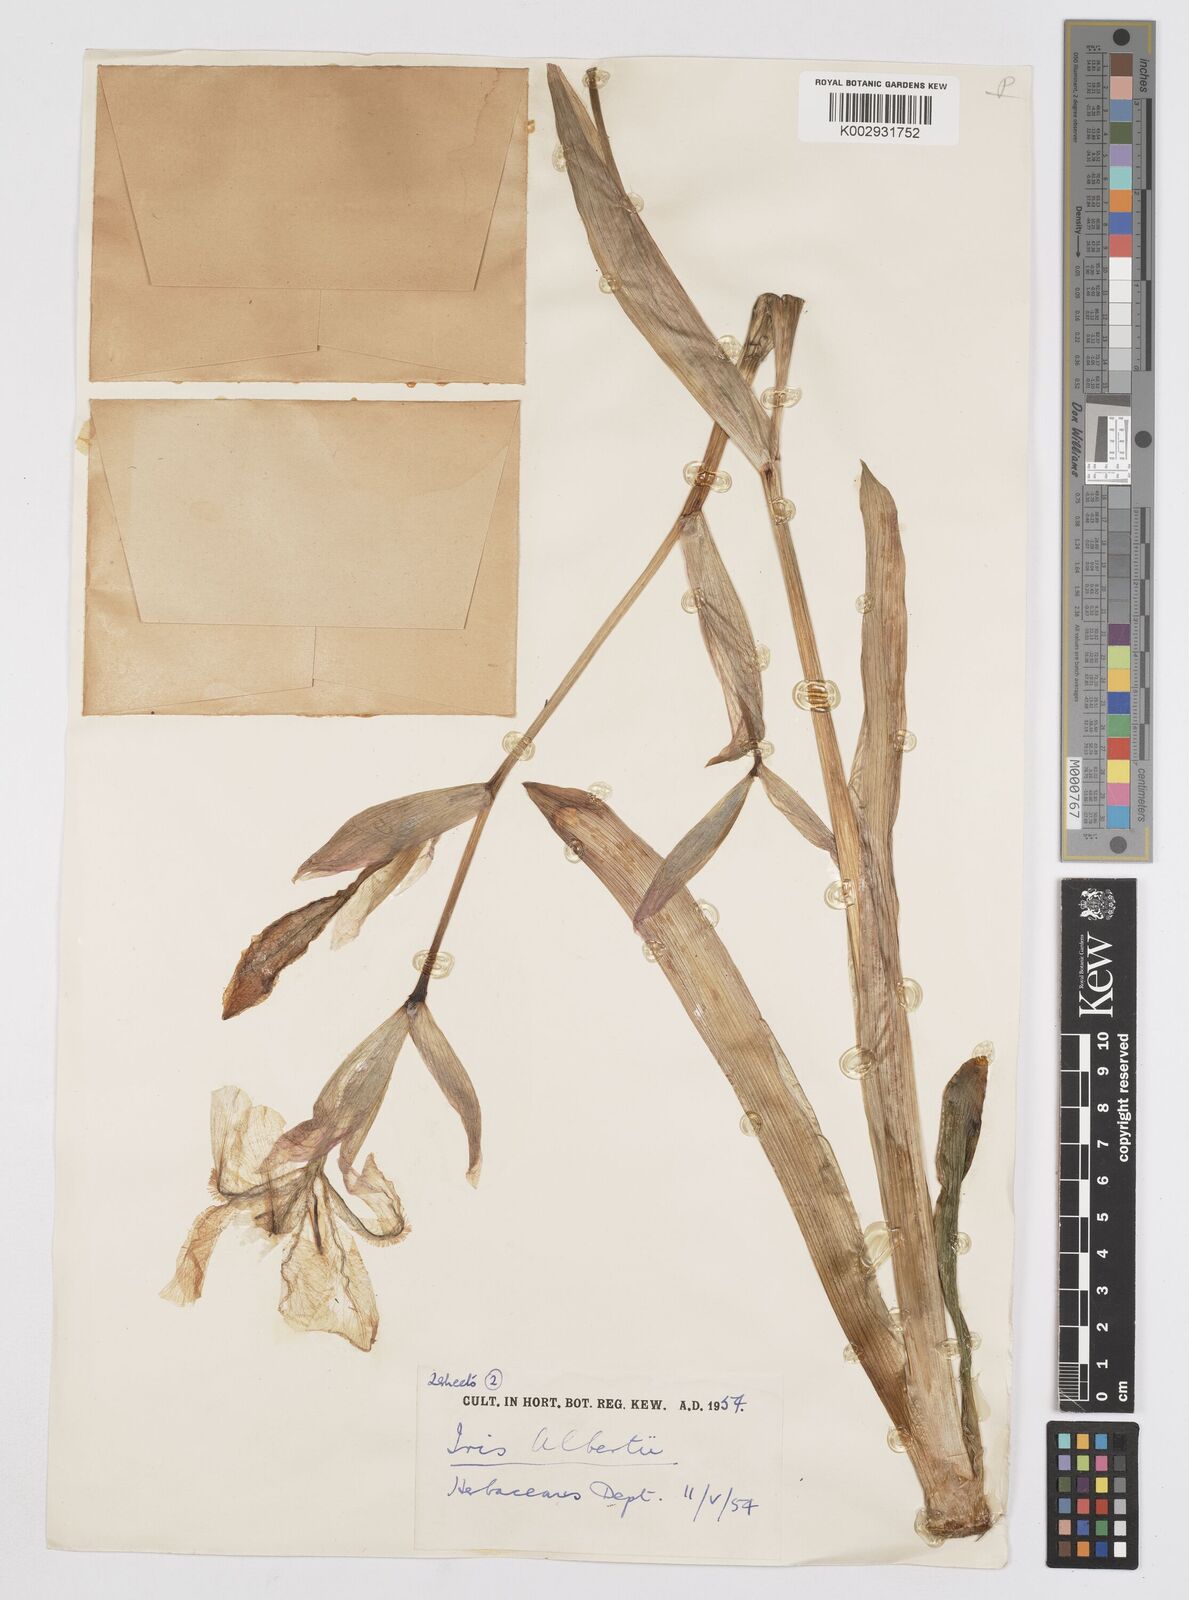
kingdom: Plantae
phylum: Tracheophyta
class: Liliopsida
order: Asparagales
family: Iridaceae
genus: Iris
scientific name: Iris alberti
